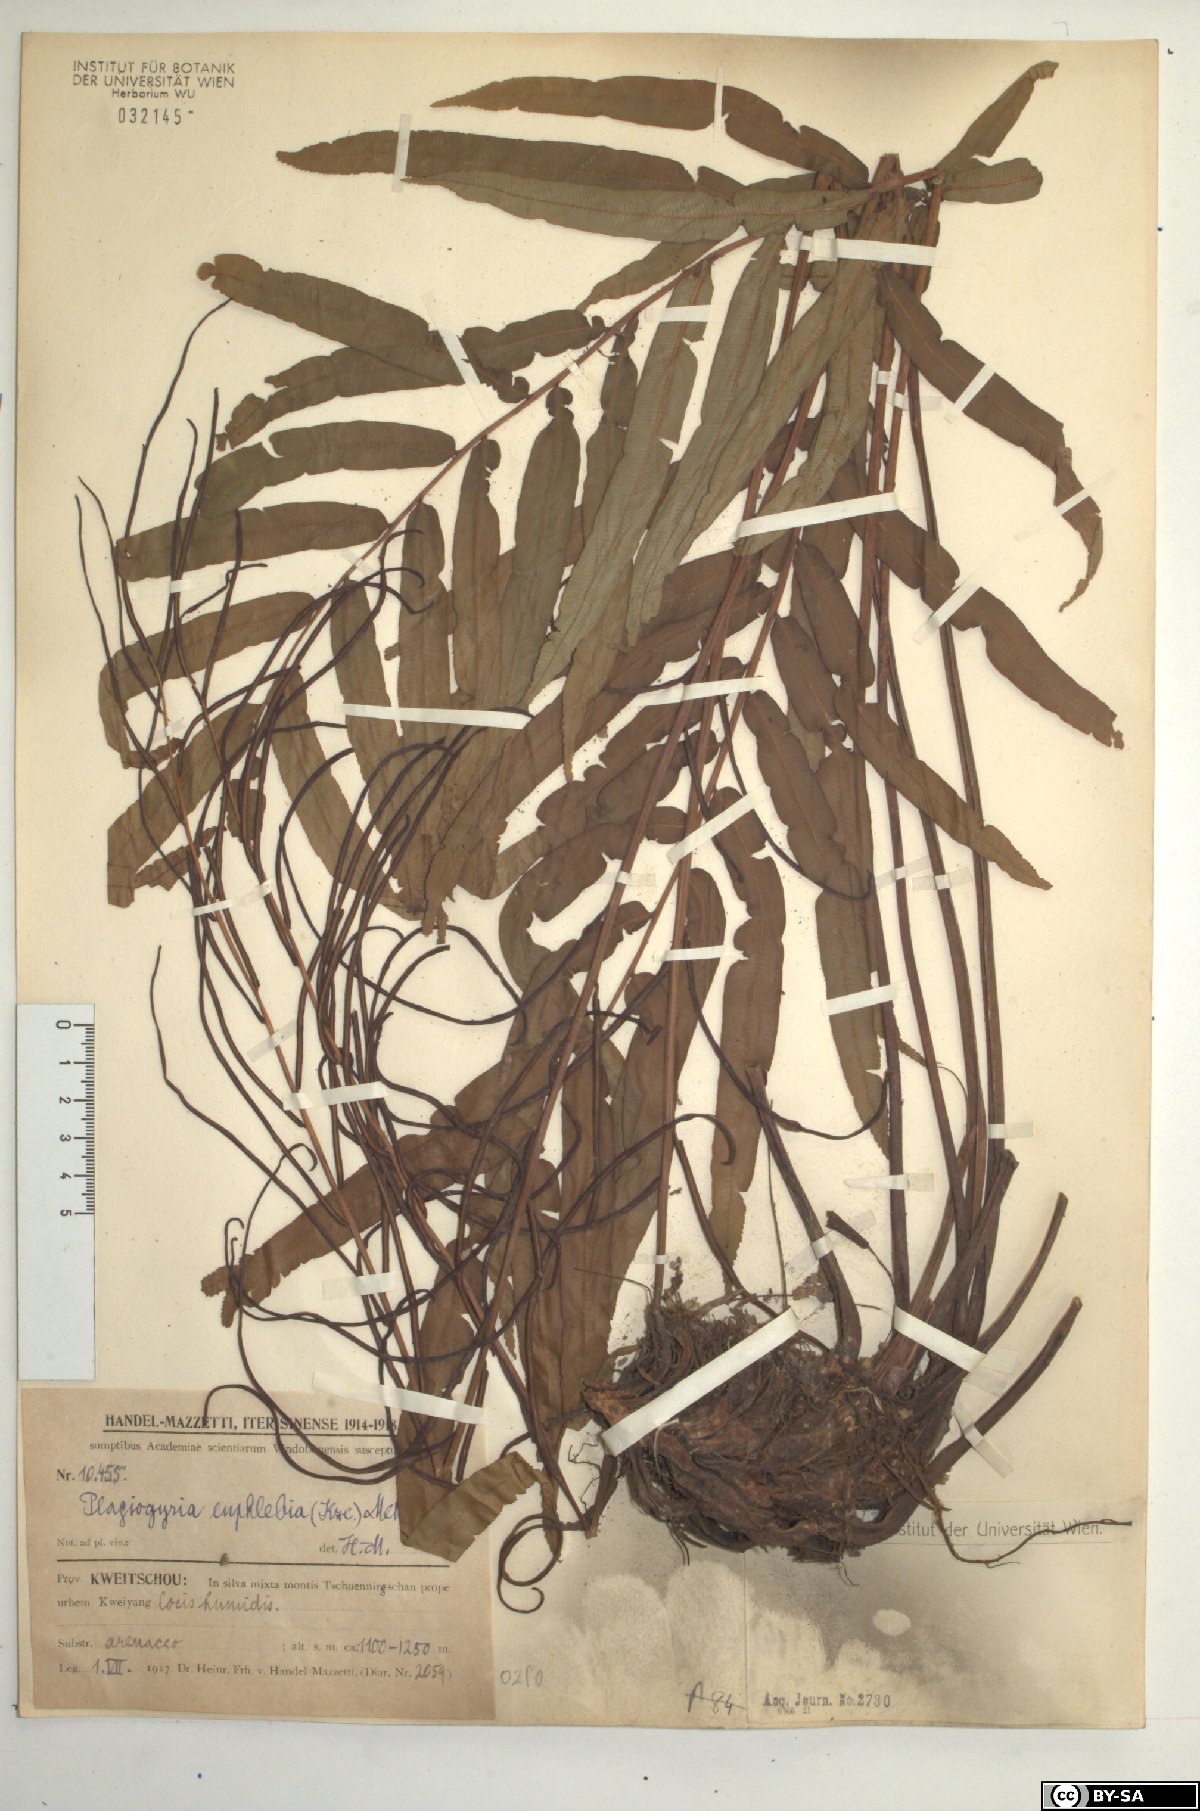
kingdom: Plantae
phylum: Tracheophyta
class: Polypodiopsida
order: Cyatheales
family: Plagiogyriaceae
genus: Plagiogyria
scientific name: Plagiogyria euphlebia
